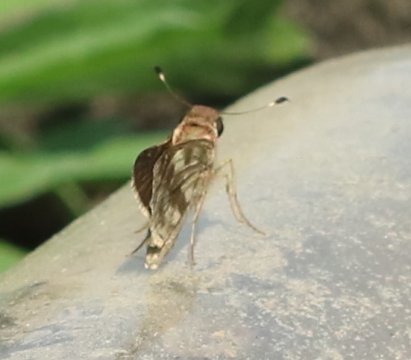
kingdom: Animalia
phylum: Arthropoda
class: Insecta
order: Lepidoptera
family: Hesperiidae
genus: Pompeius
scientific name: Pompeius pompeius
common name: Pompeius Skipper
